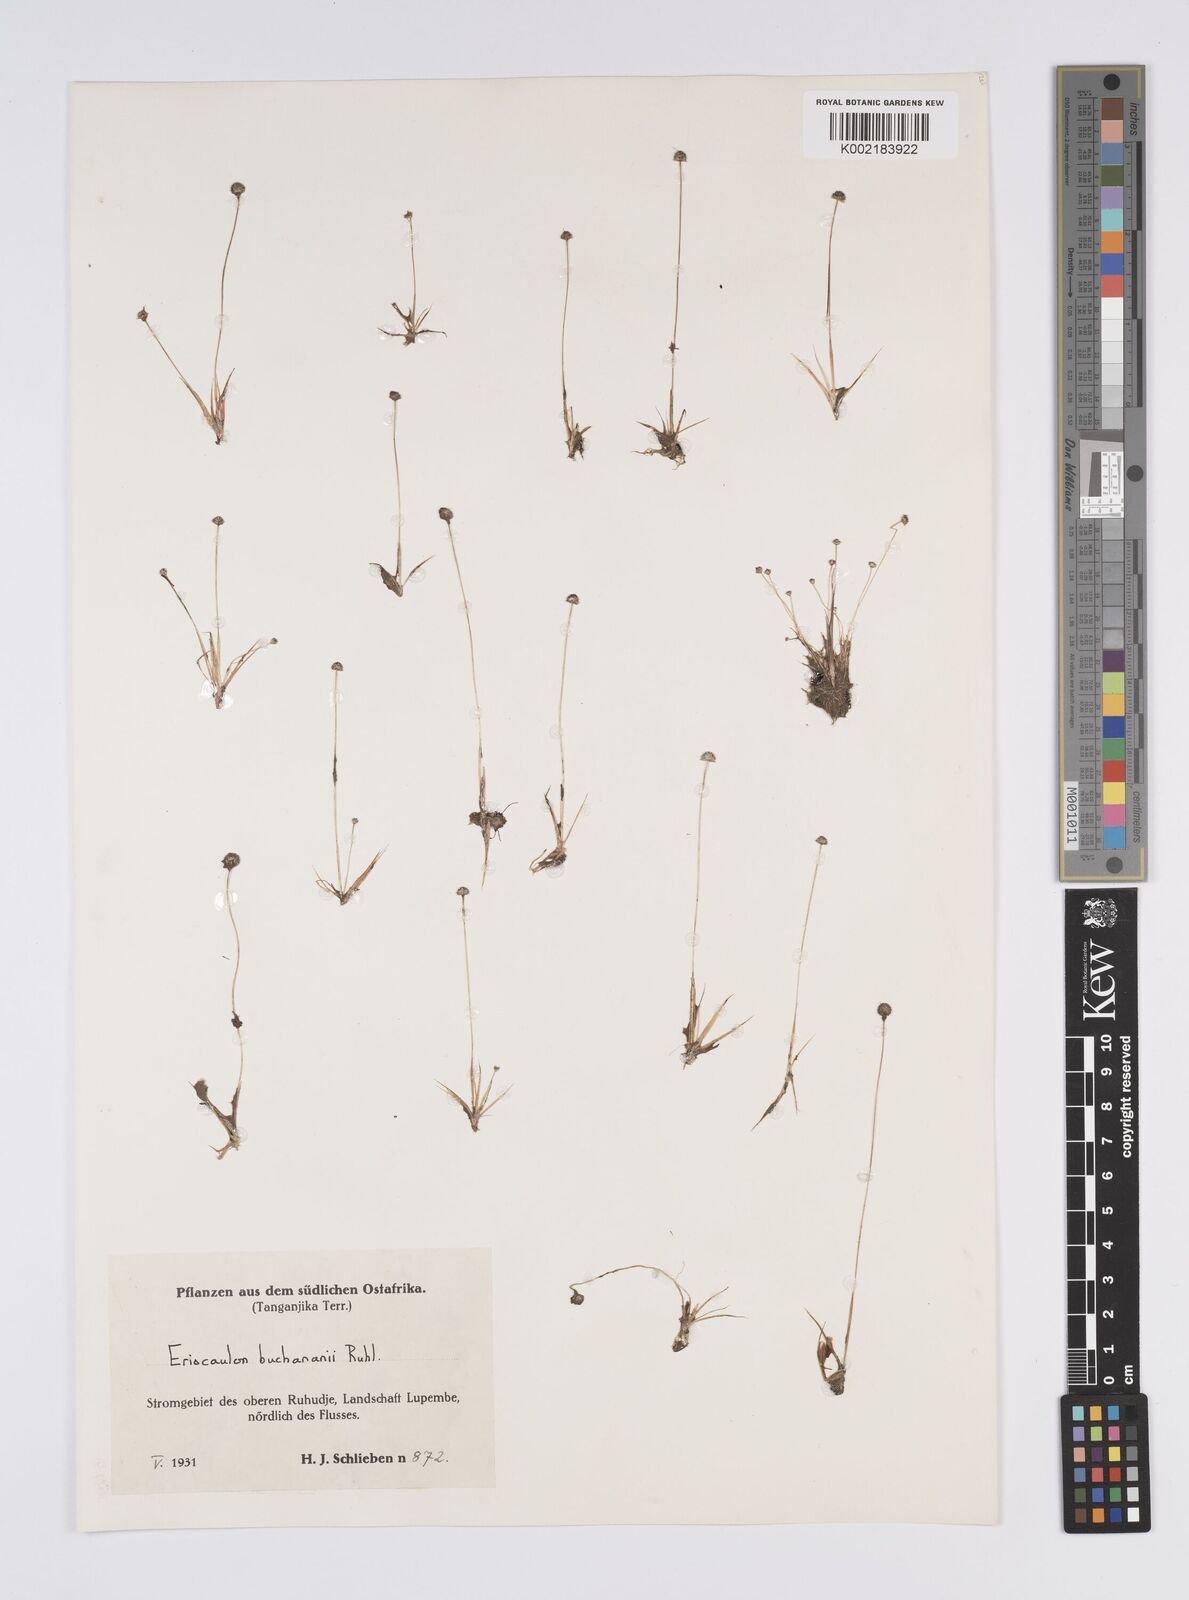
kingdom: Plantae
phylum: Tracheophyta
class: Liliopsida
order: Poales
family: Eriocaulaceae
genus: Eriocaulon
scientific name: Eriocaulon buchananii
